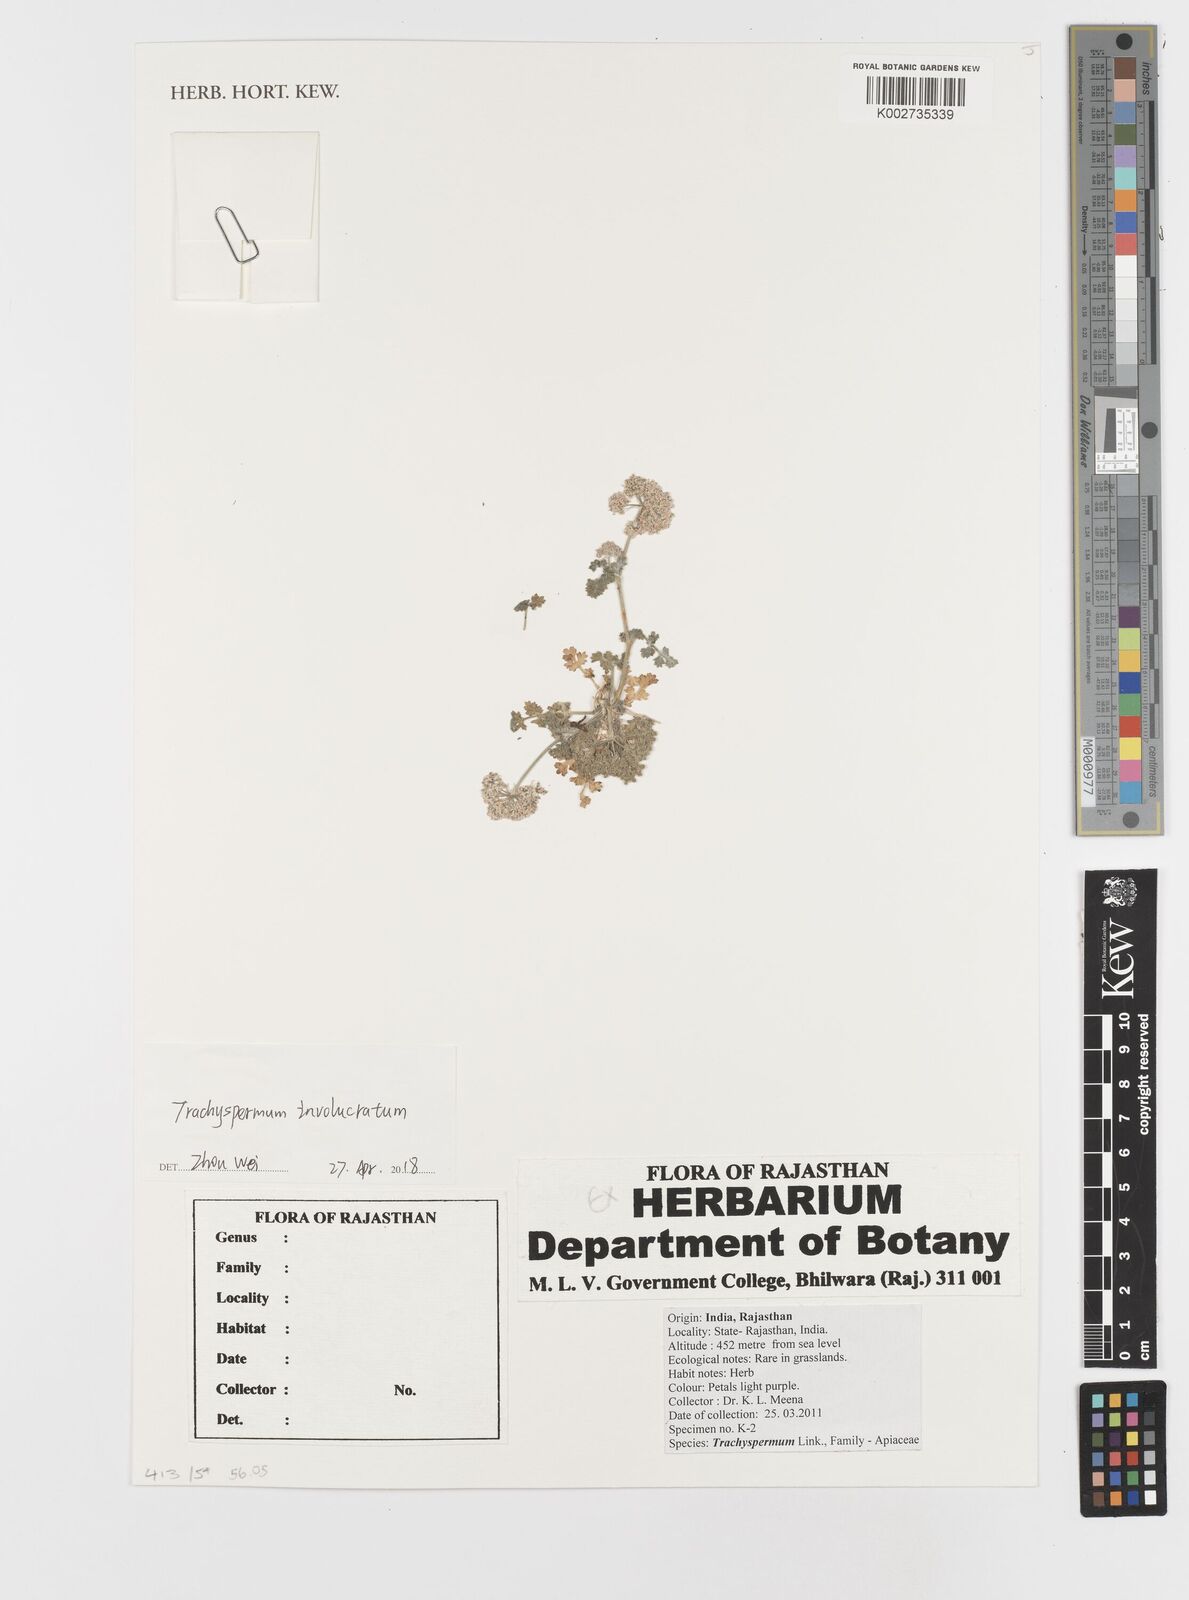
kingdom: Plantae
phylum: Tracheophyta
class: Magnoliopsida
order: Apiales
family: Apiaceae
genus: Modesciadium
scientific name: Modesciadium involucratum
